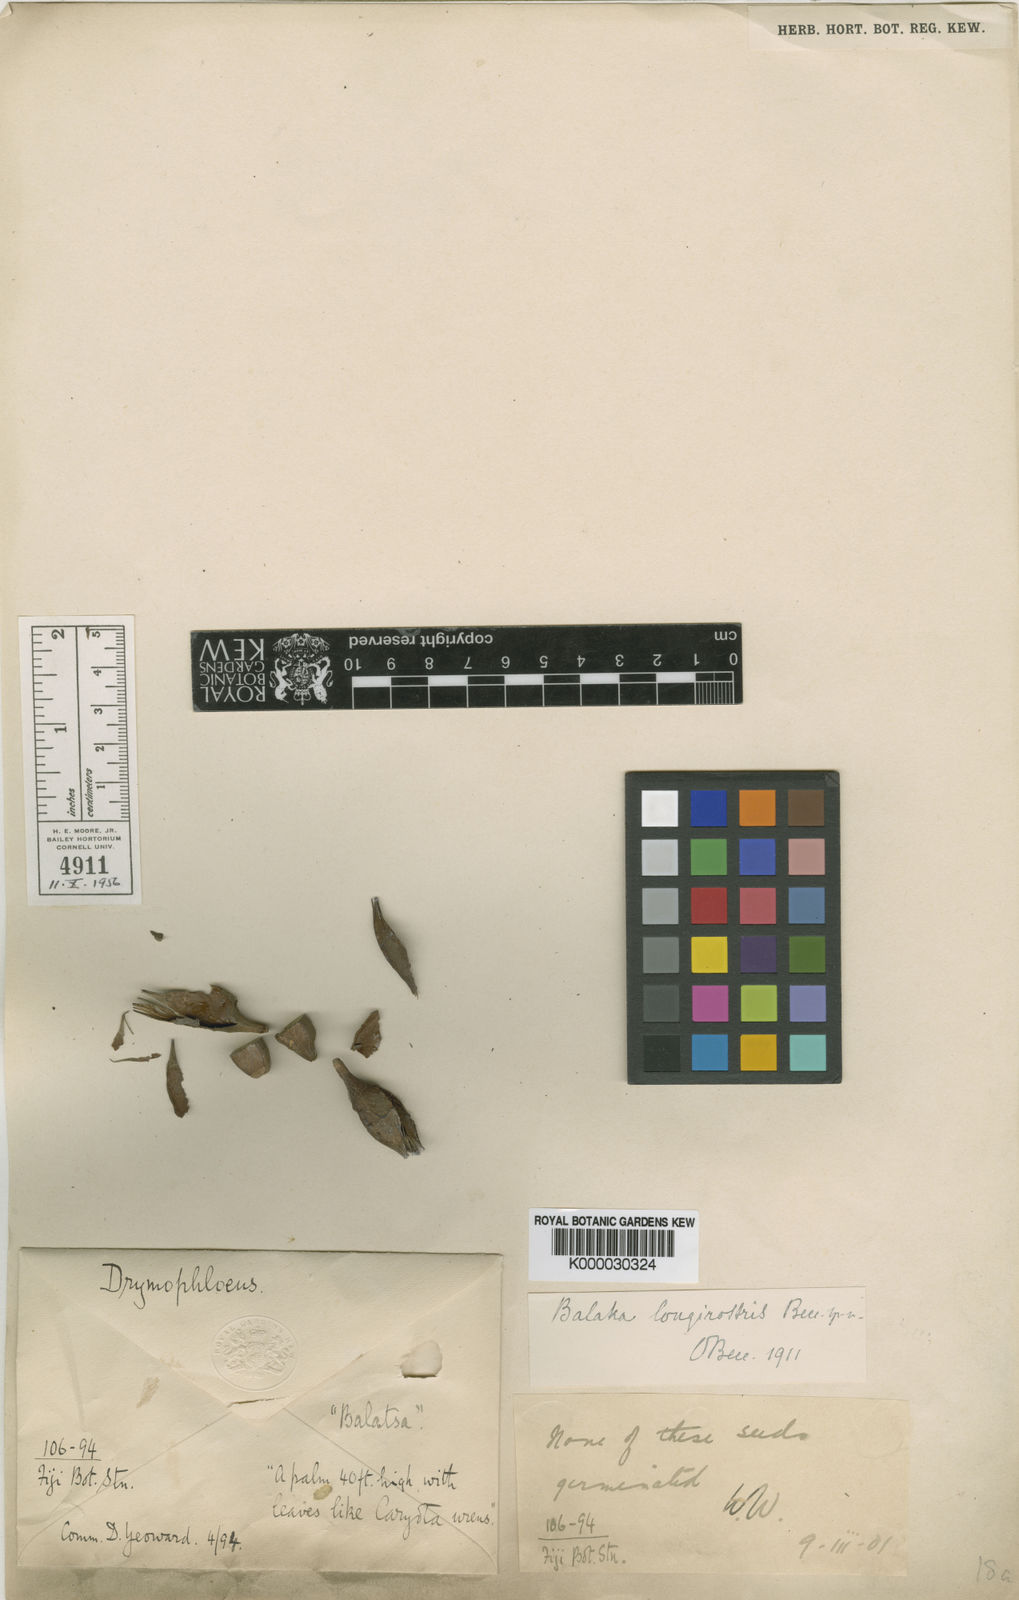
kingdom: Plantae
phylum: Tracheophyta
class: Liliopsida
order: Arecales
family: Arecaceae
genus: Balaka
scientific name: Balaka samoensis
